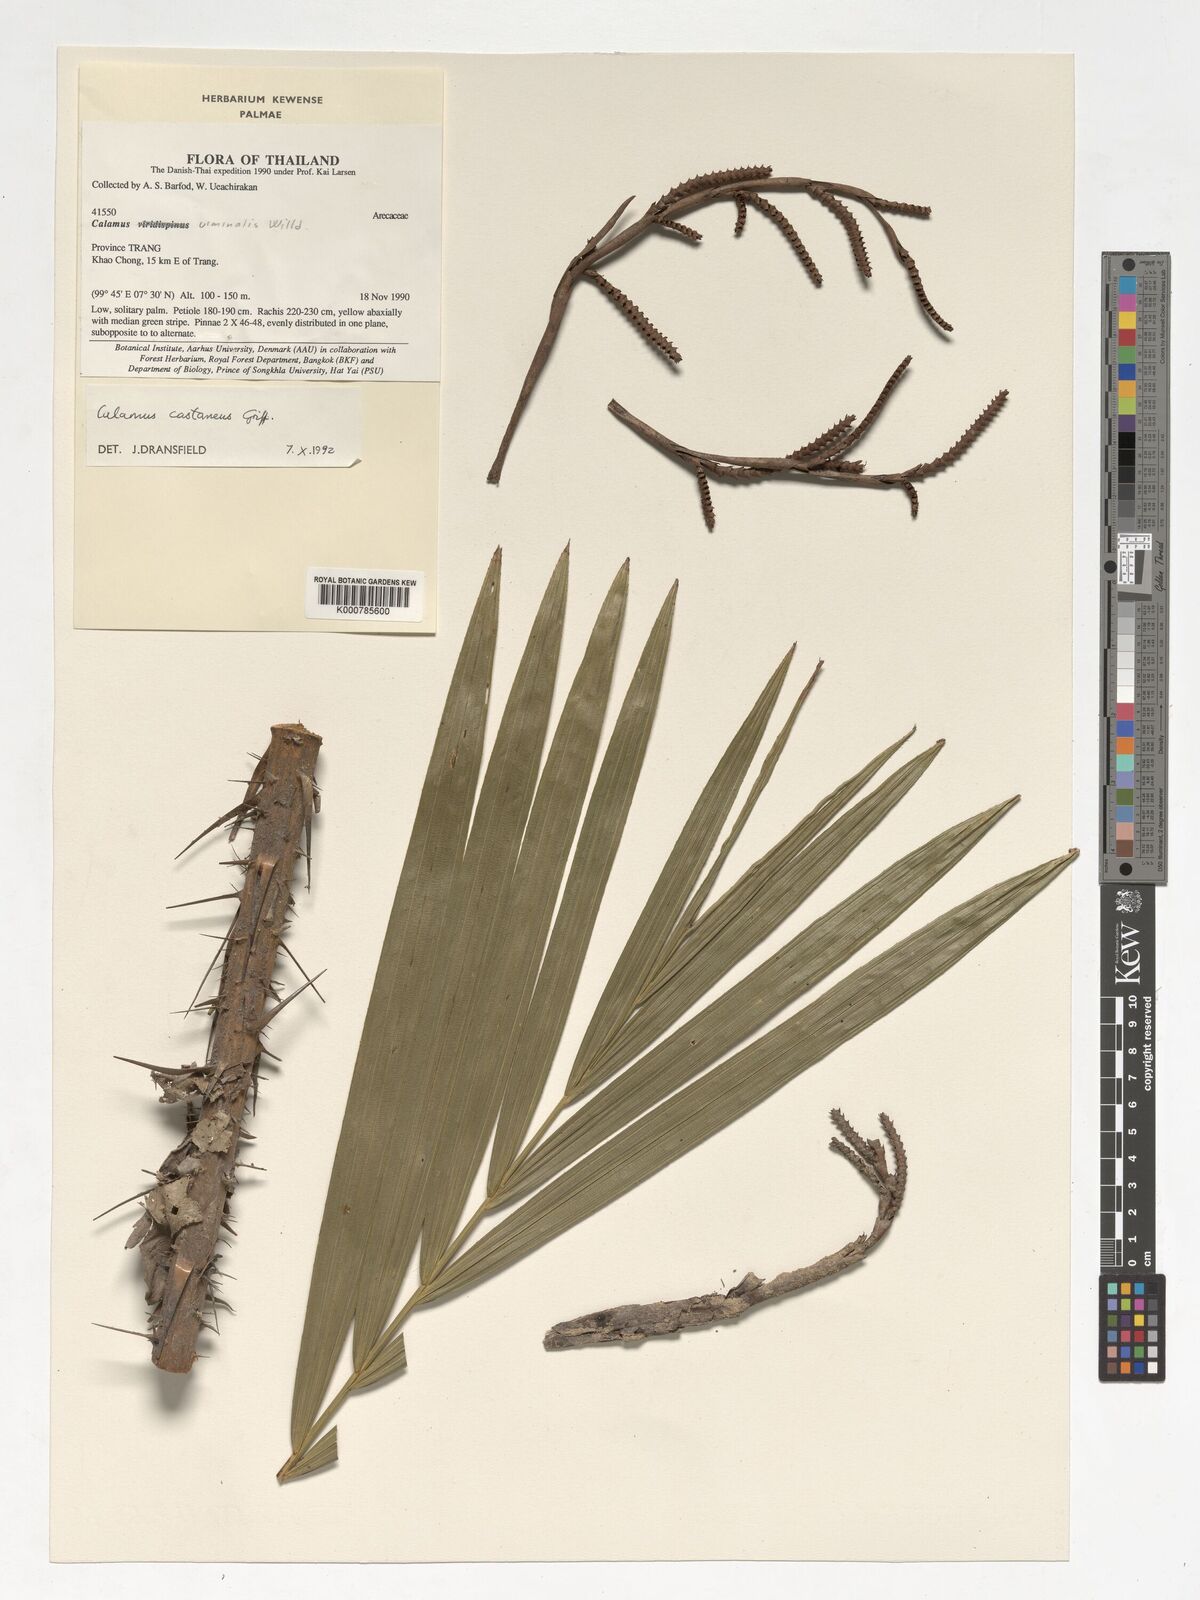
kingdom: Plantae
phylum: Tracheophyta
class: Liliopsida
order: Arecales
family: Arecaceae
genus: Calamus
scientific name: Calamus castaneus
